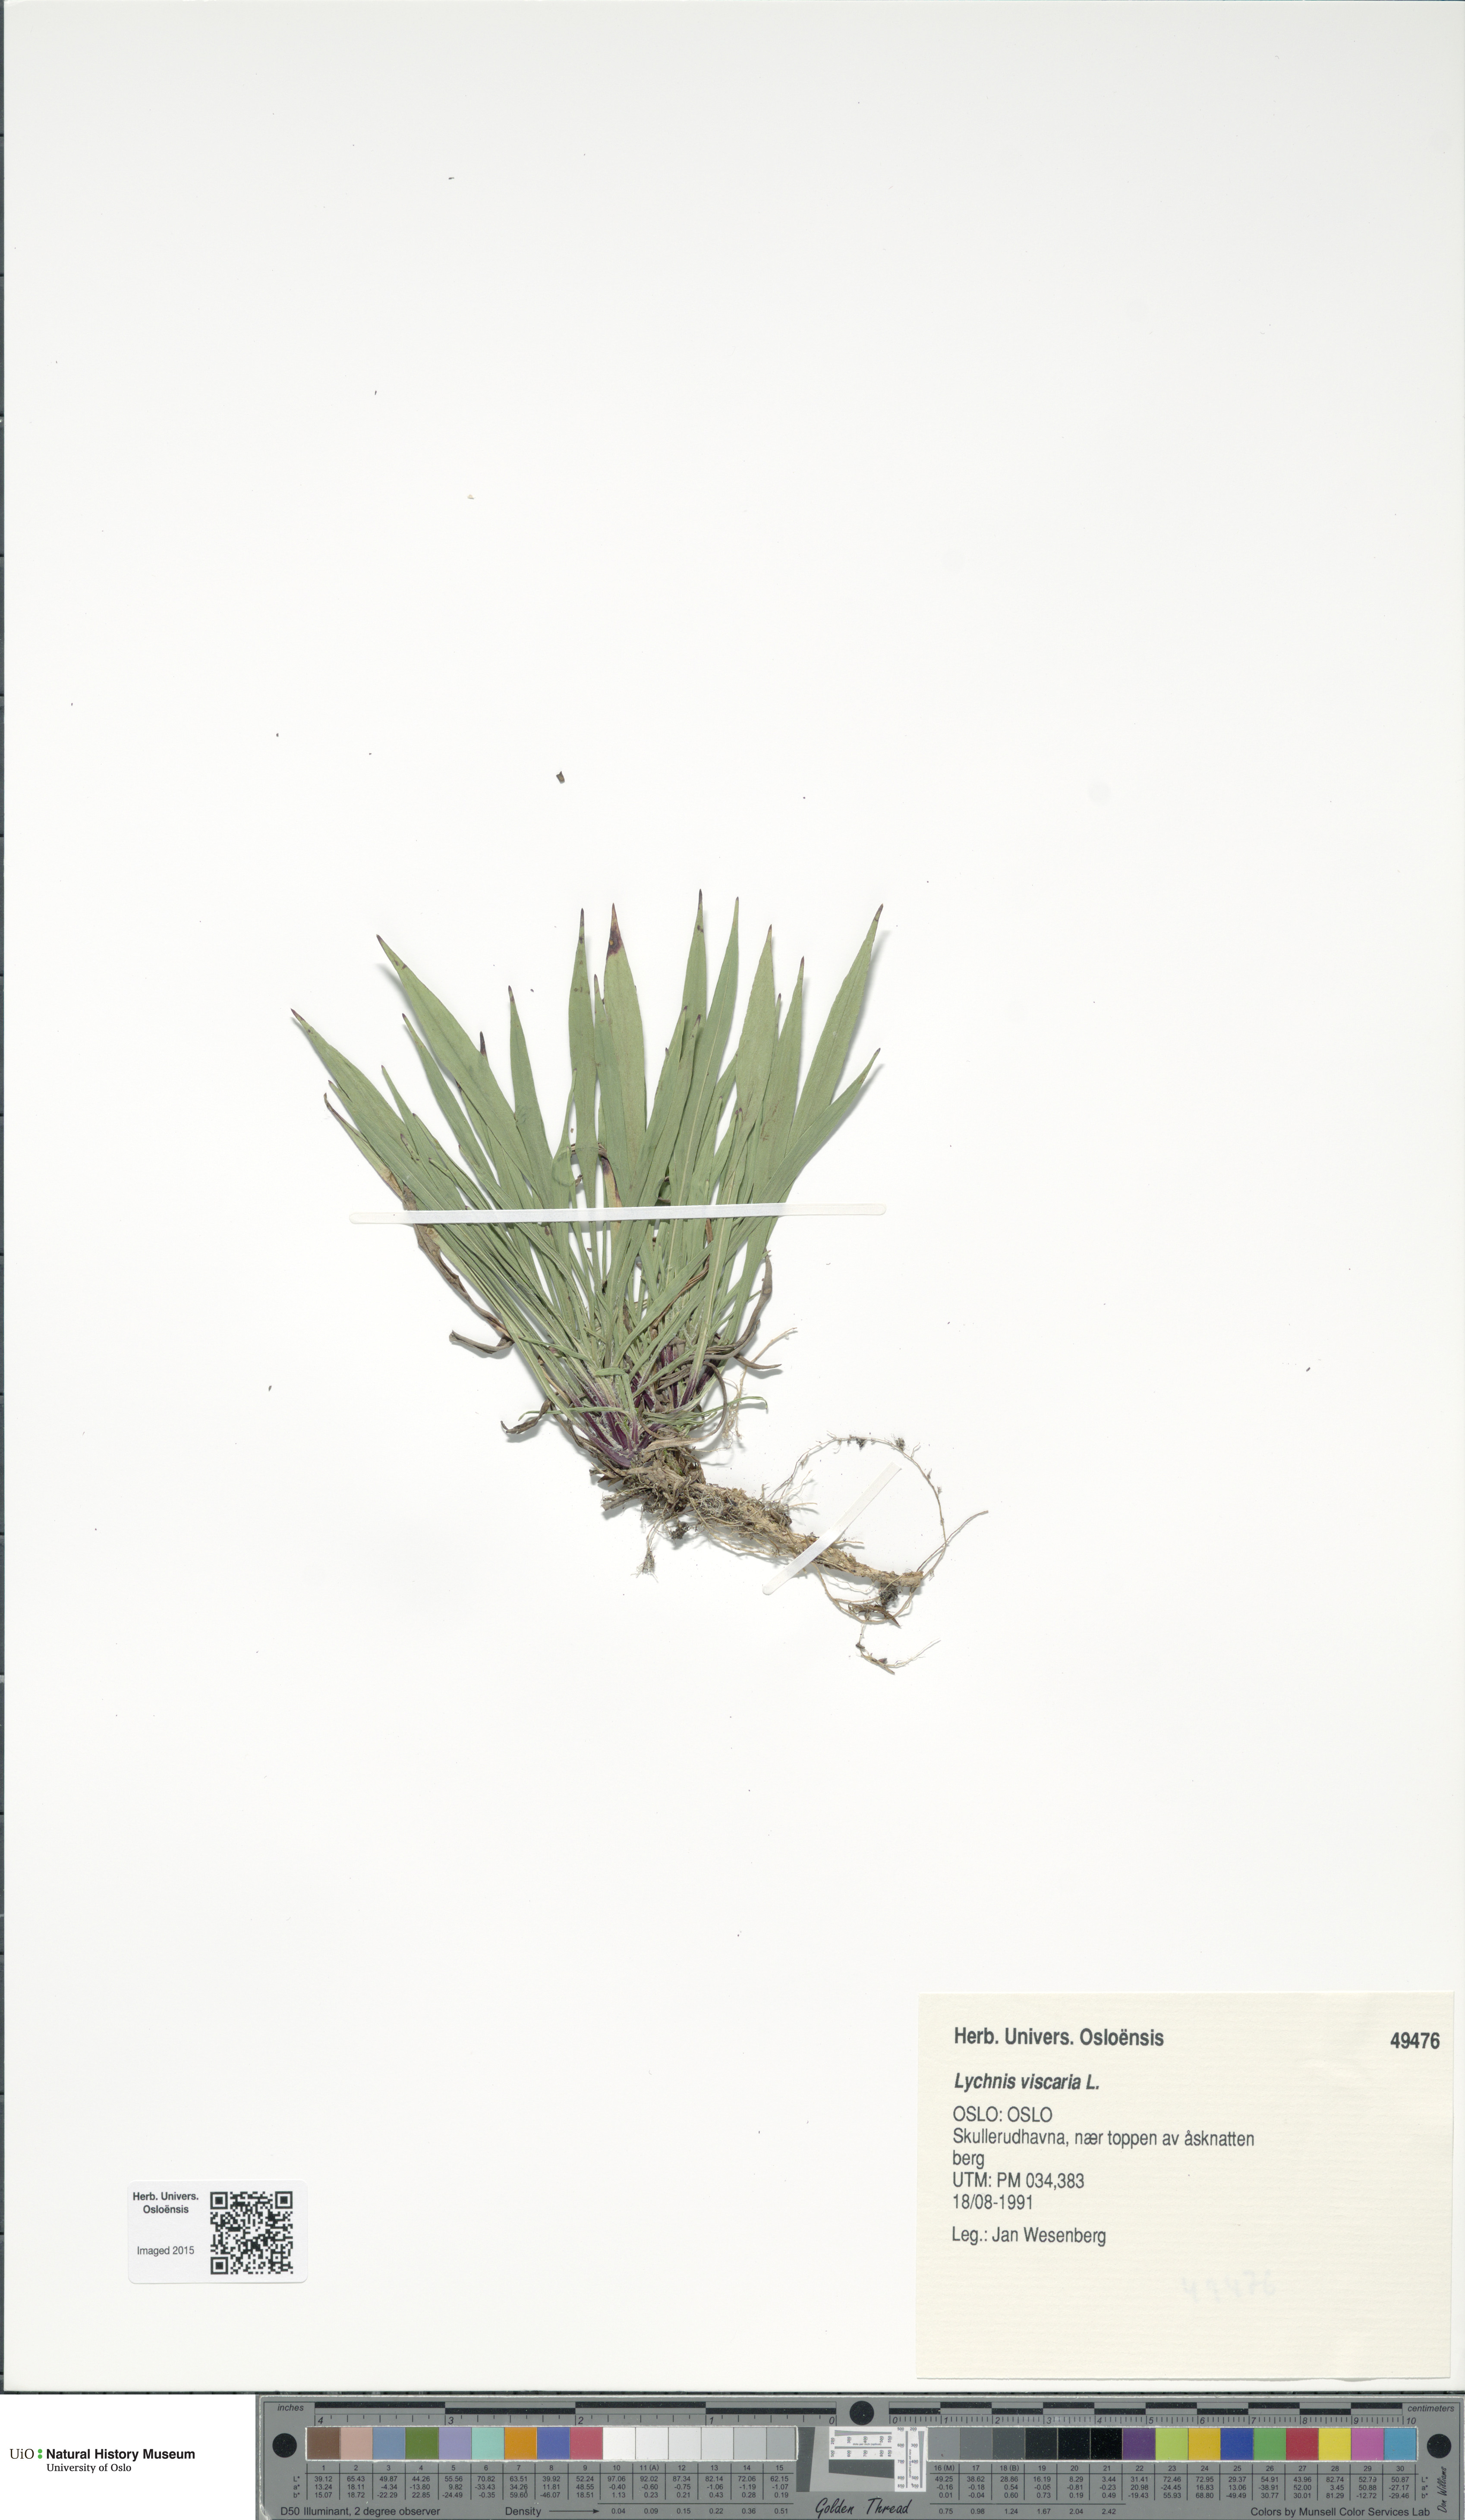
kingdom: Plantae
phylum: Tracheophyta
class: Magnoliopsida
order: Caryophyllales
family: Caryophyllaceae
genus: Viscaria
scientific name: Viscaria vulgaris
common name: Clammy campion
